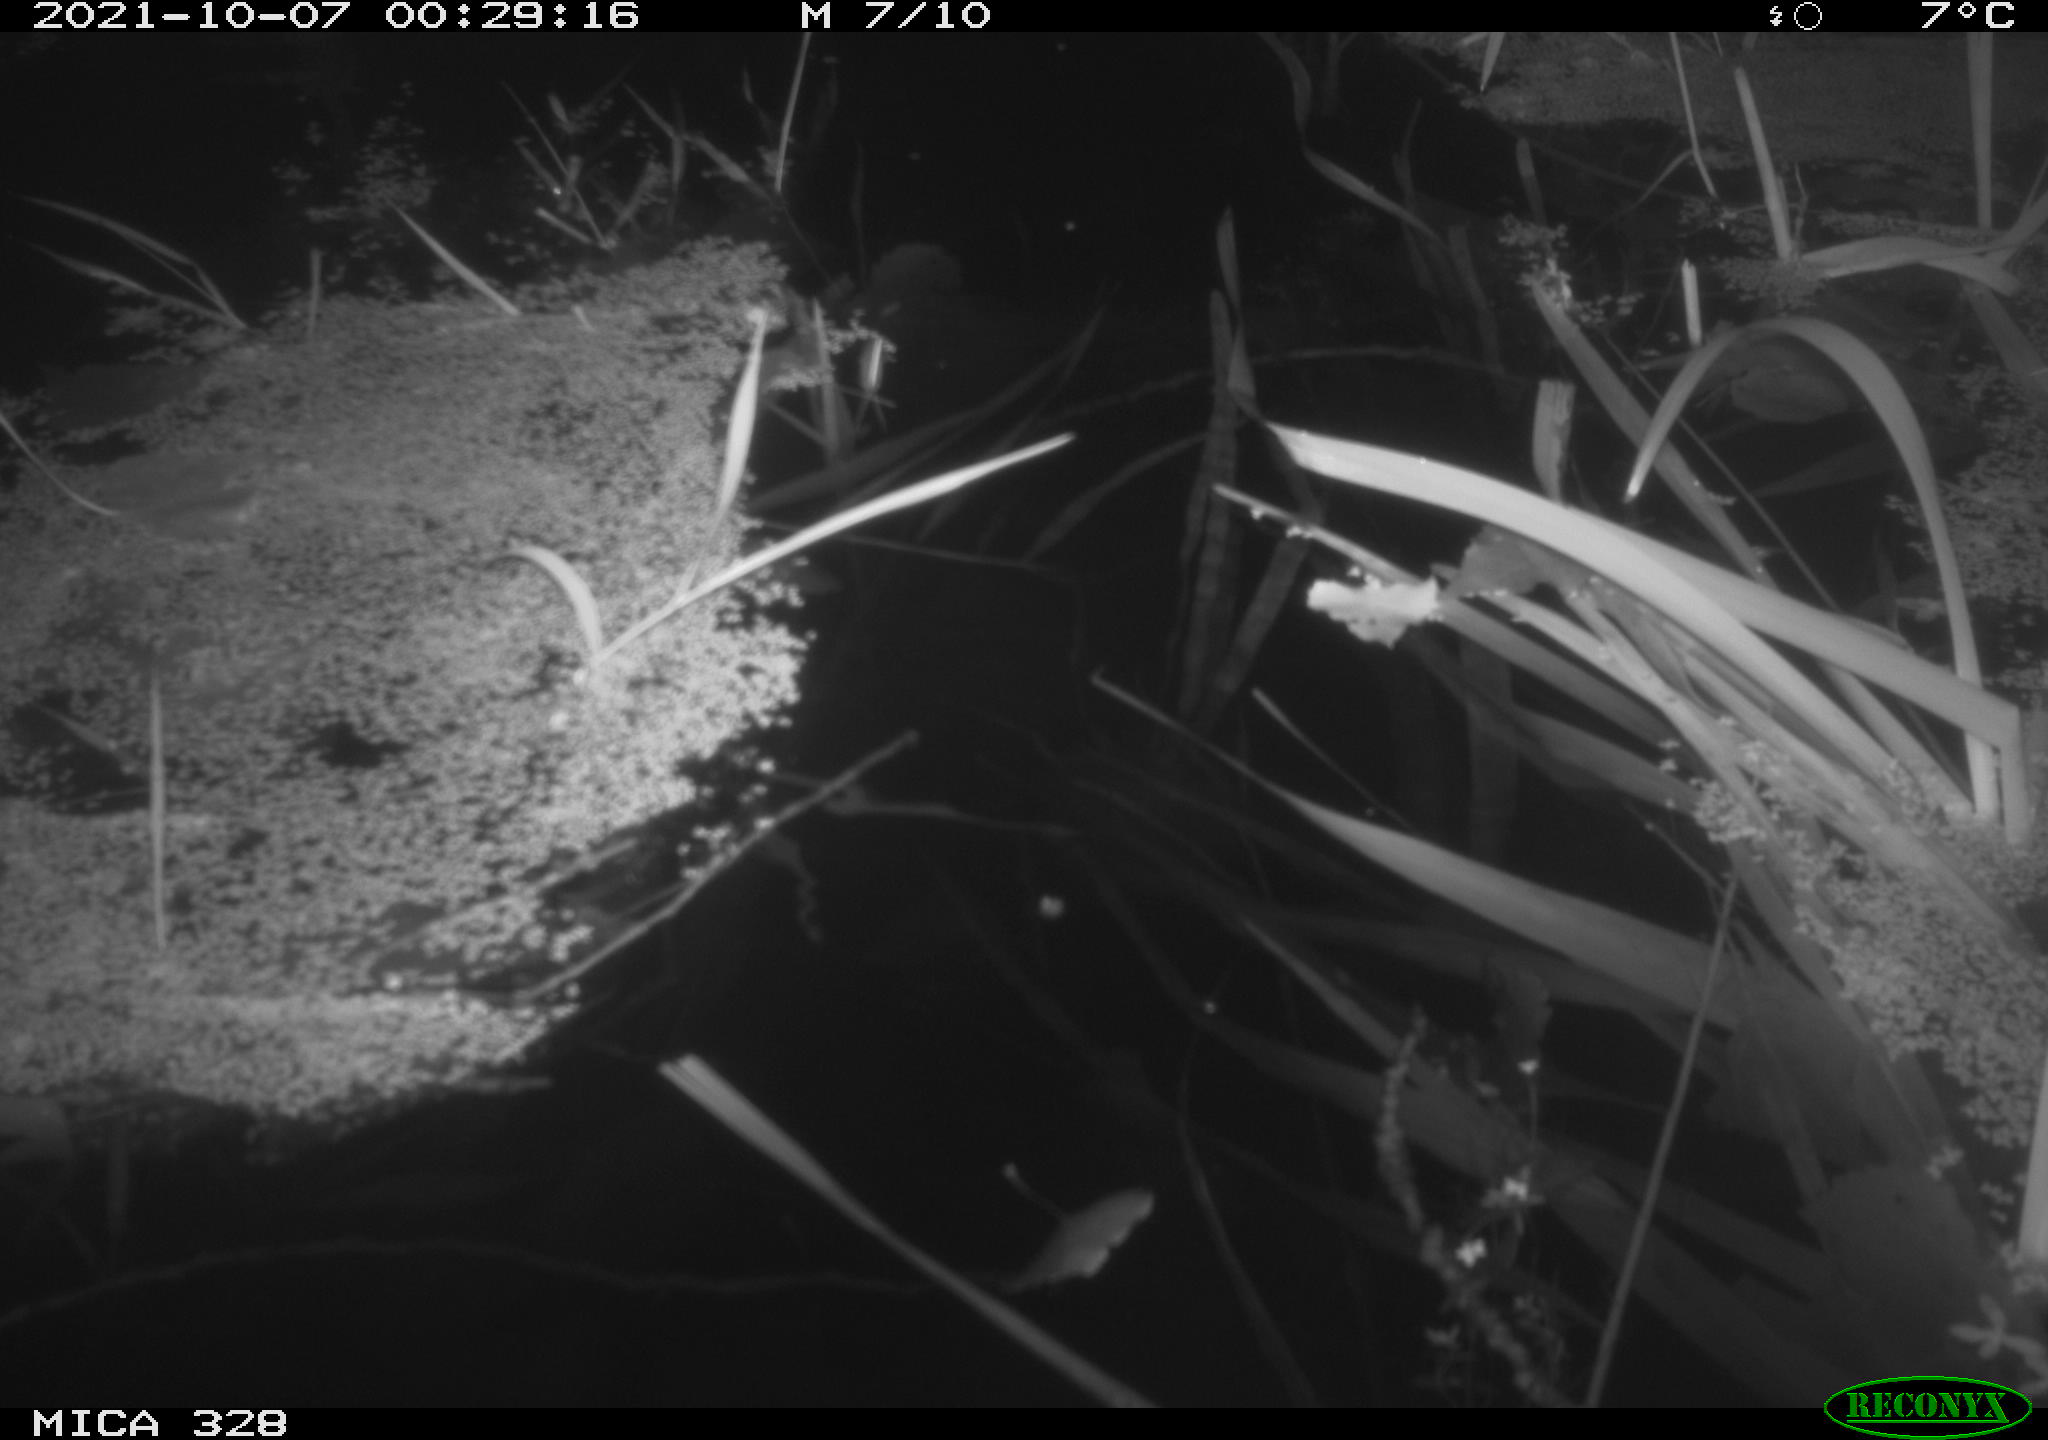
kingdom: Animalia
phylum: Chordata
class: Mammalia
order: Rodentia
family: Cricetidae
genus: Ondatra
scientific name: Ondatra zibethicus
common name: Muskrat
